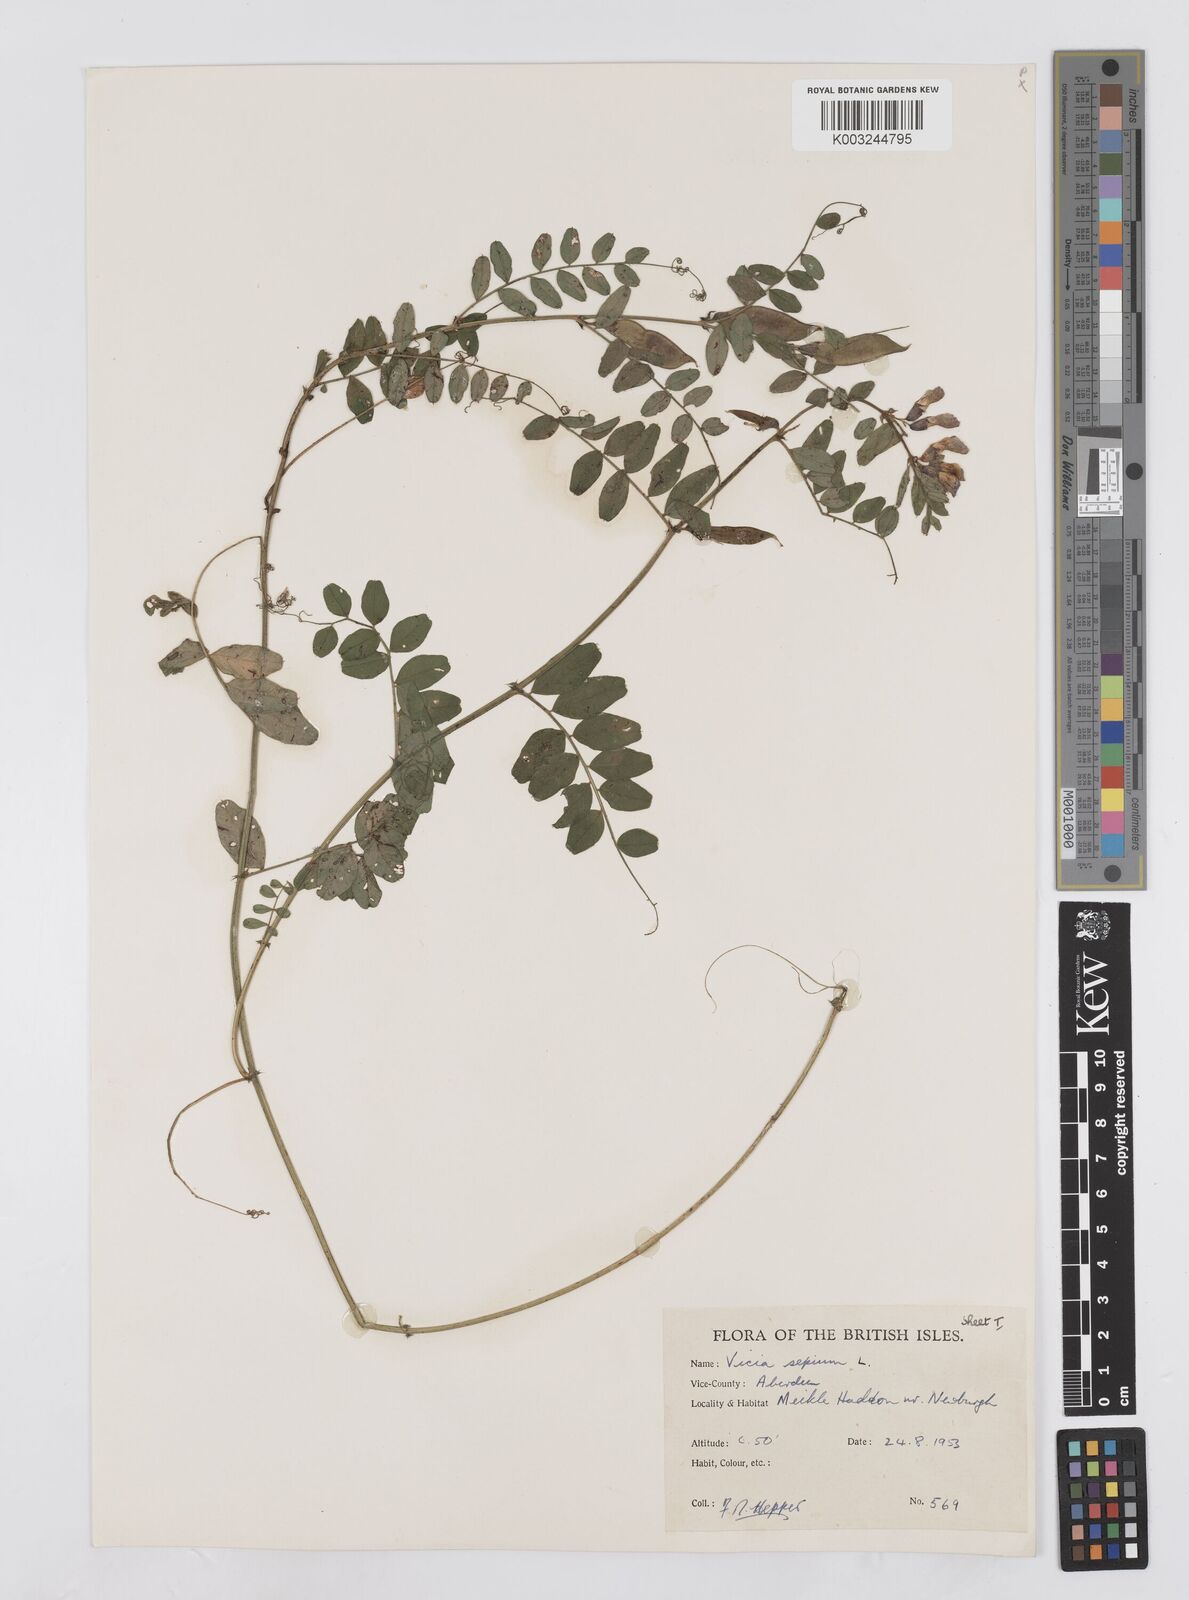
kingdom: Plantae
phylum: Tracheophyta
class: Magnoliopsida
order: Fabales
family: Fabaceae
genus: Vicia
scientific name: Vicia sepium
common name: Bush vetch
